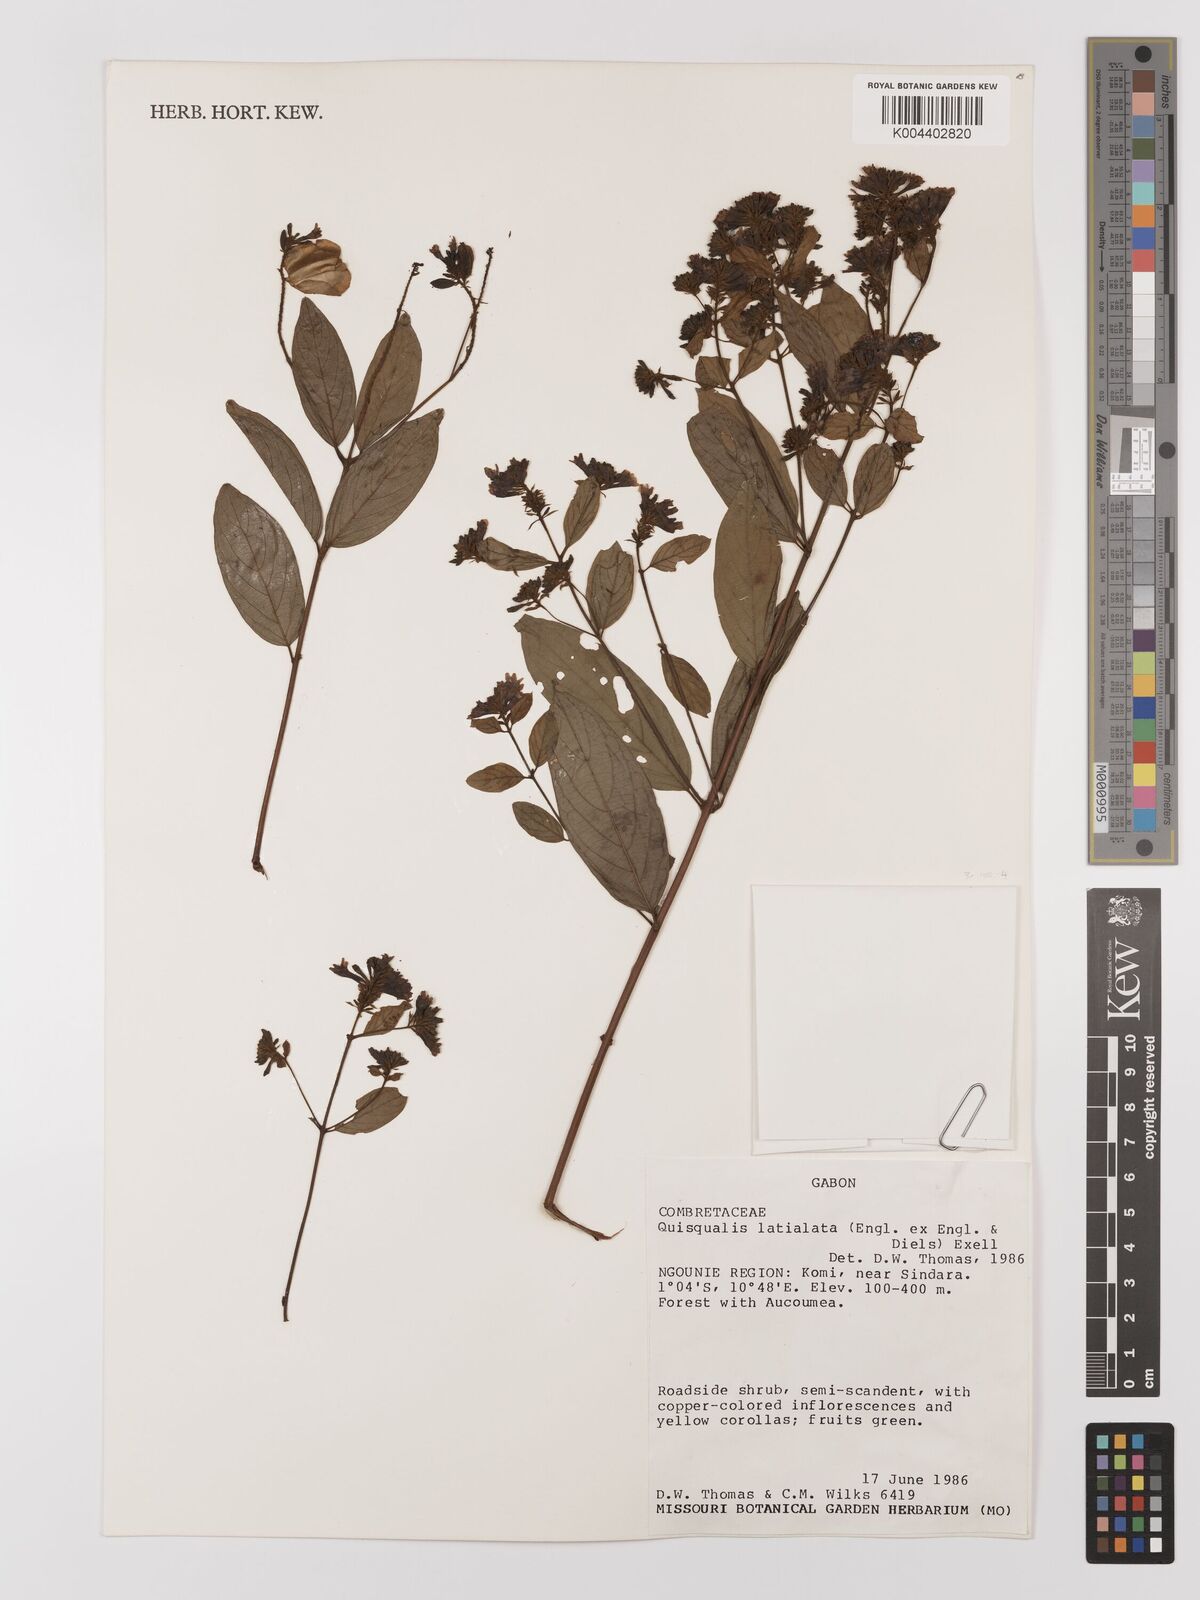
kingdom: Plantae
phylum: Tracheophyta
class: Magnoliopsida
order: Myrtales
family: Combretaceae
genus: Combretum
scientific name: Combretum latialatum
